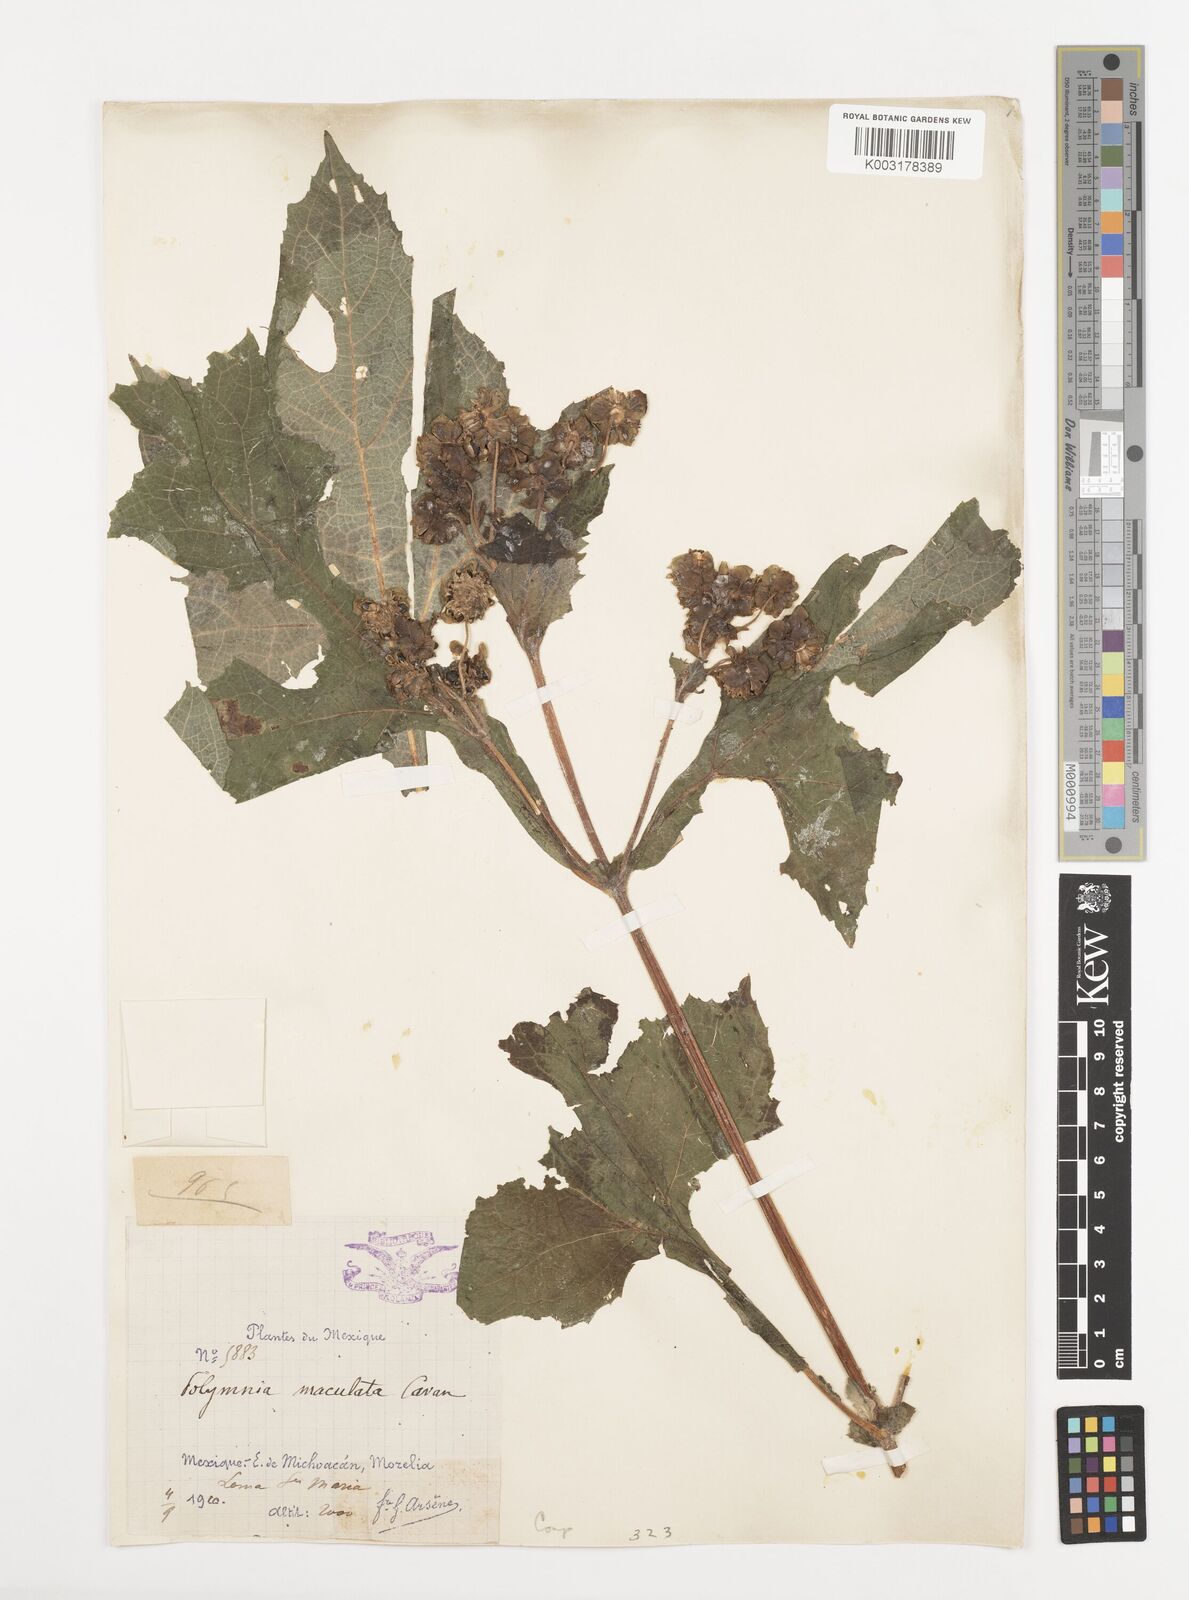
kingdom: Plantae
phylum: Tracheophyta
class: Magnoliopsida
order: Asterales
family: Asteraceae
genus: Smallanthus
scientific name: Smallanthus maculatus
